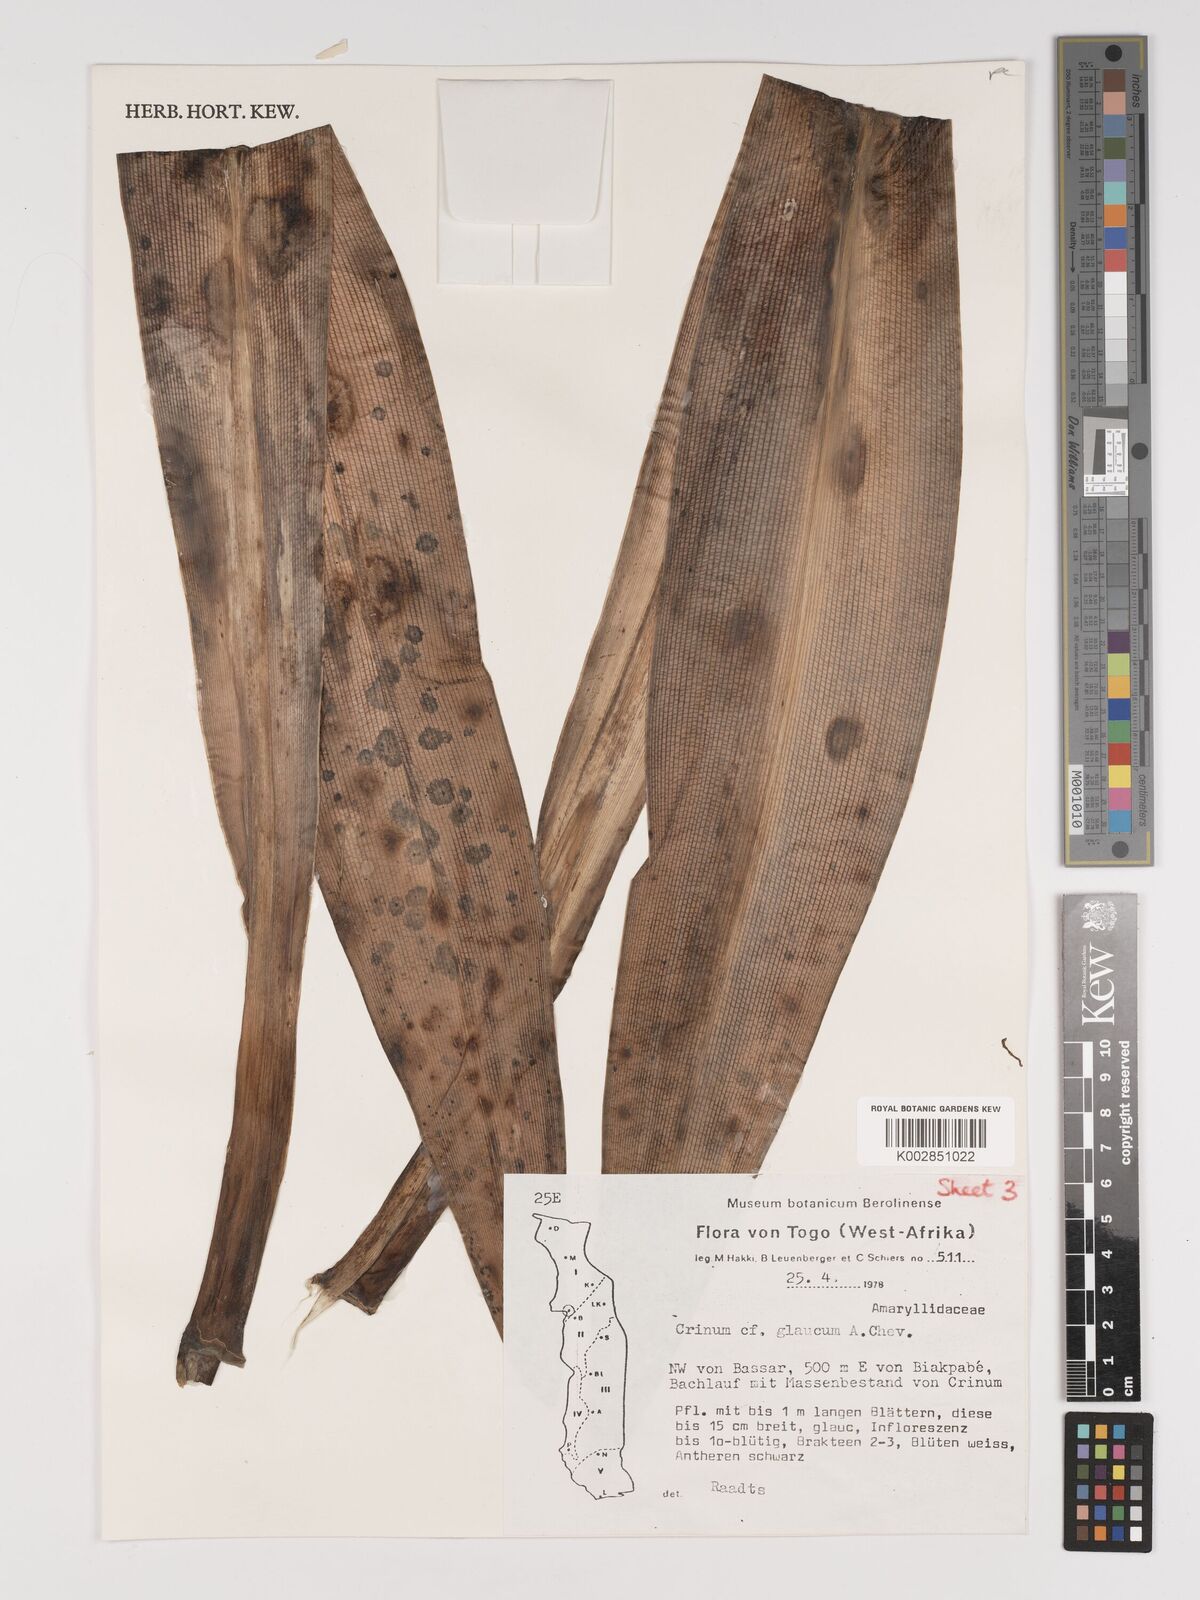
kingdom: Plantae
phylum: Tracheophyta
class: Liliopsida
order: Asparagales
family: Amaryllidaceae
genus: Crinum
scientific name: Crinum glaucum
